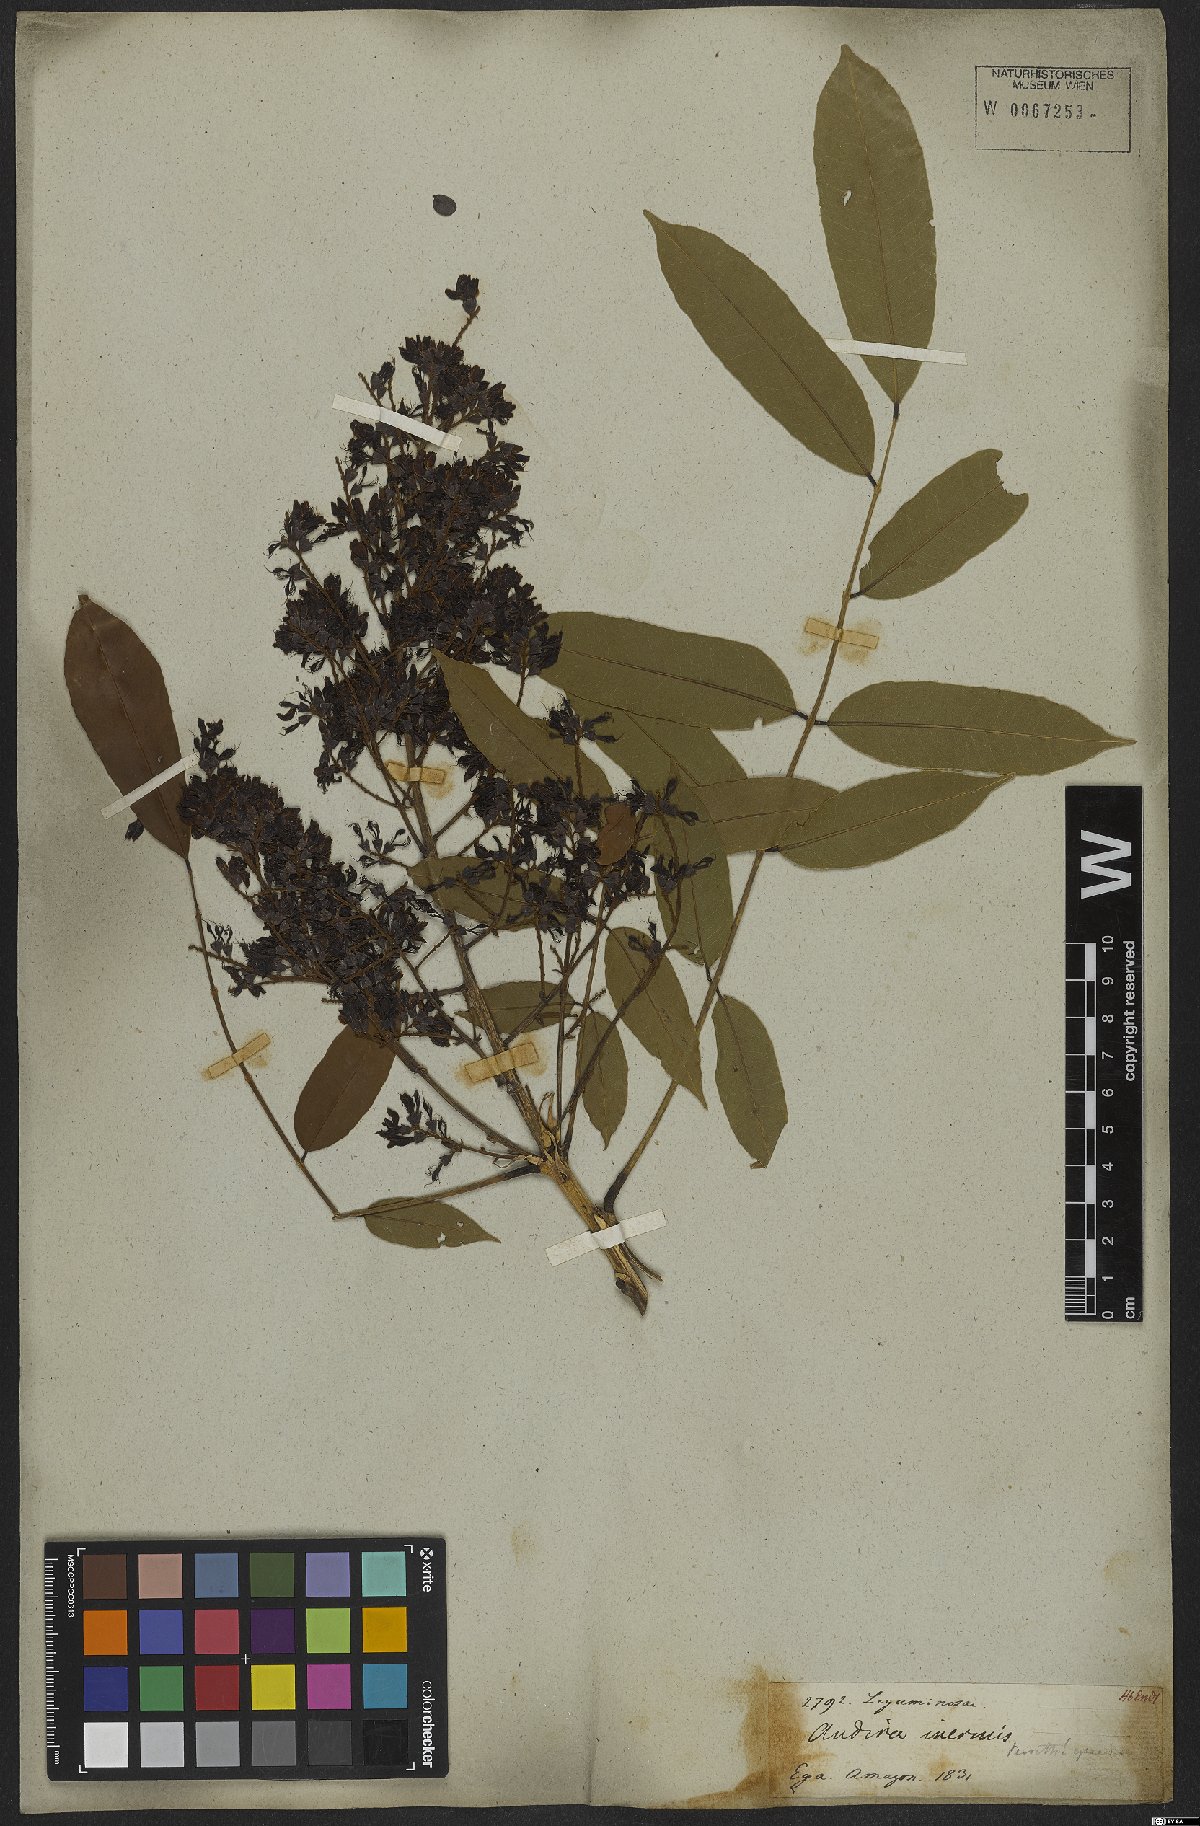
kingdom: Plantae
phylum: Tracheophyta
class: Magnoliopsida
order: Fabales
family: Fabaceae
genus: Andira
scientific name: Andira inermis
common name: Angelin
